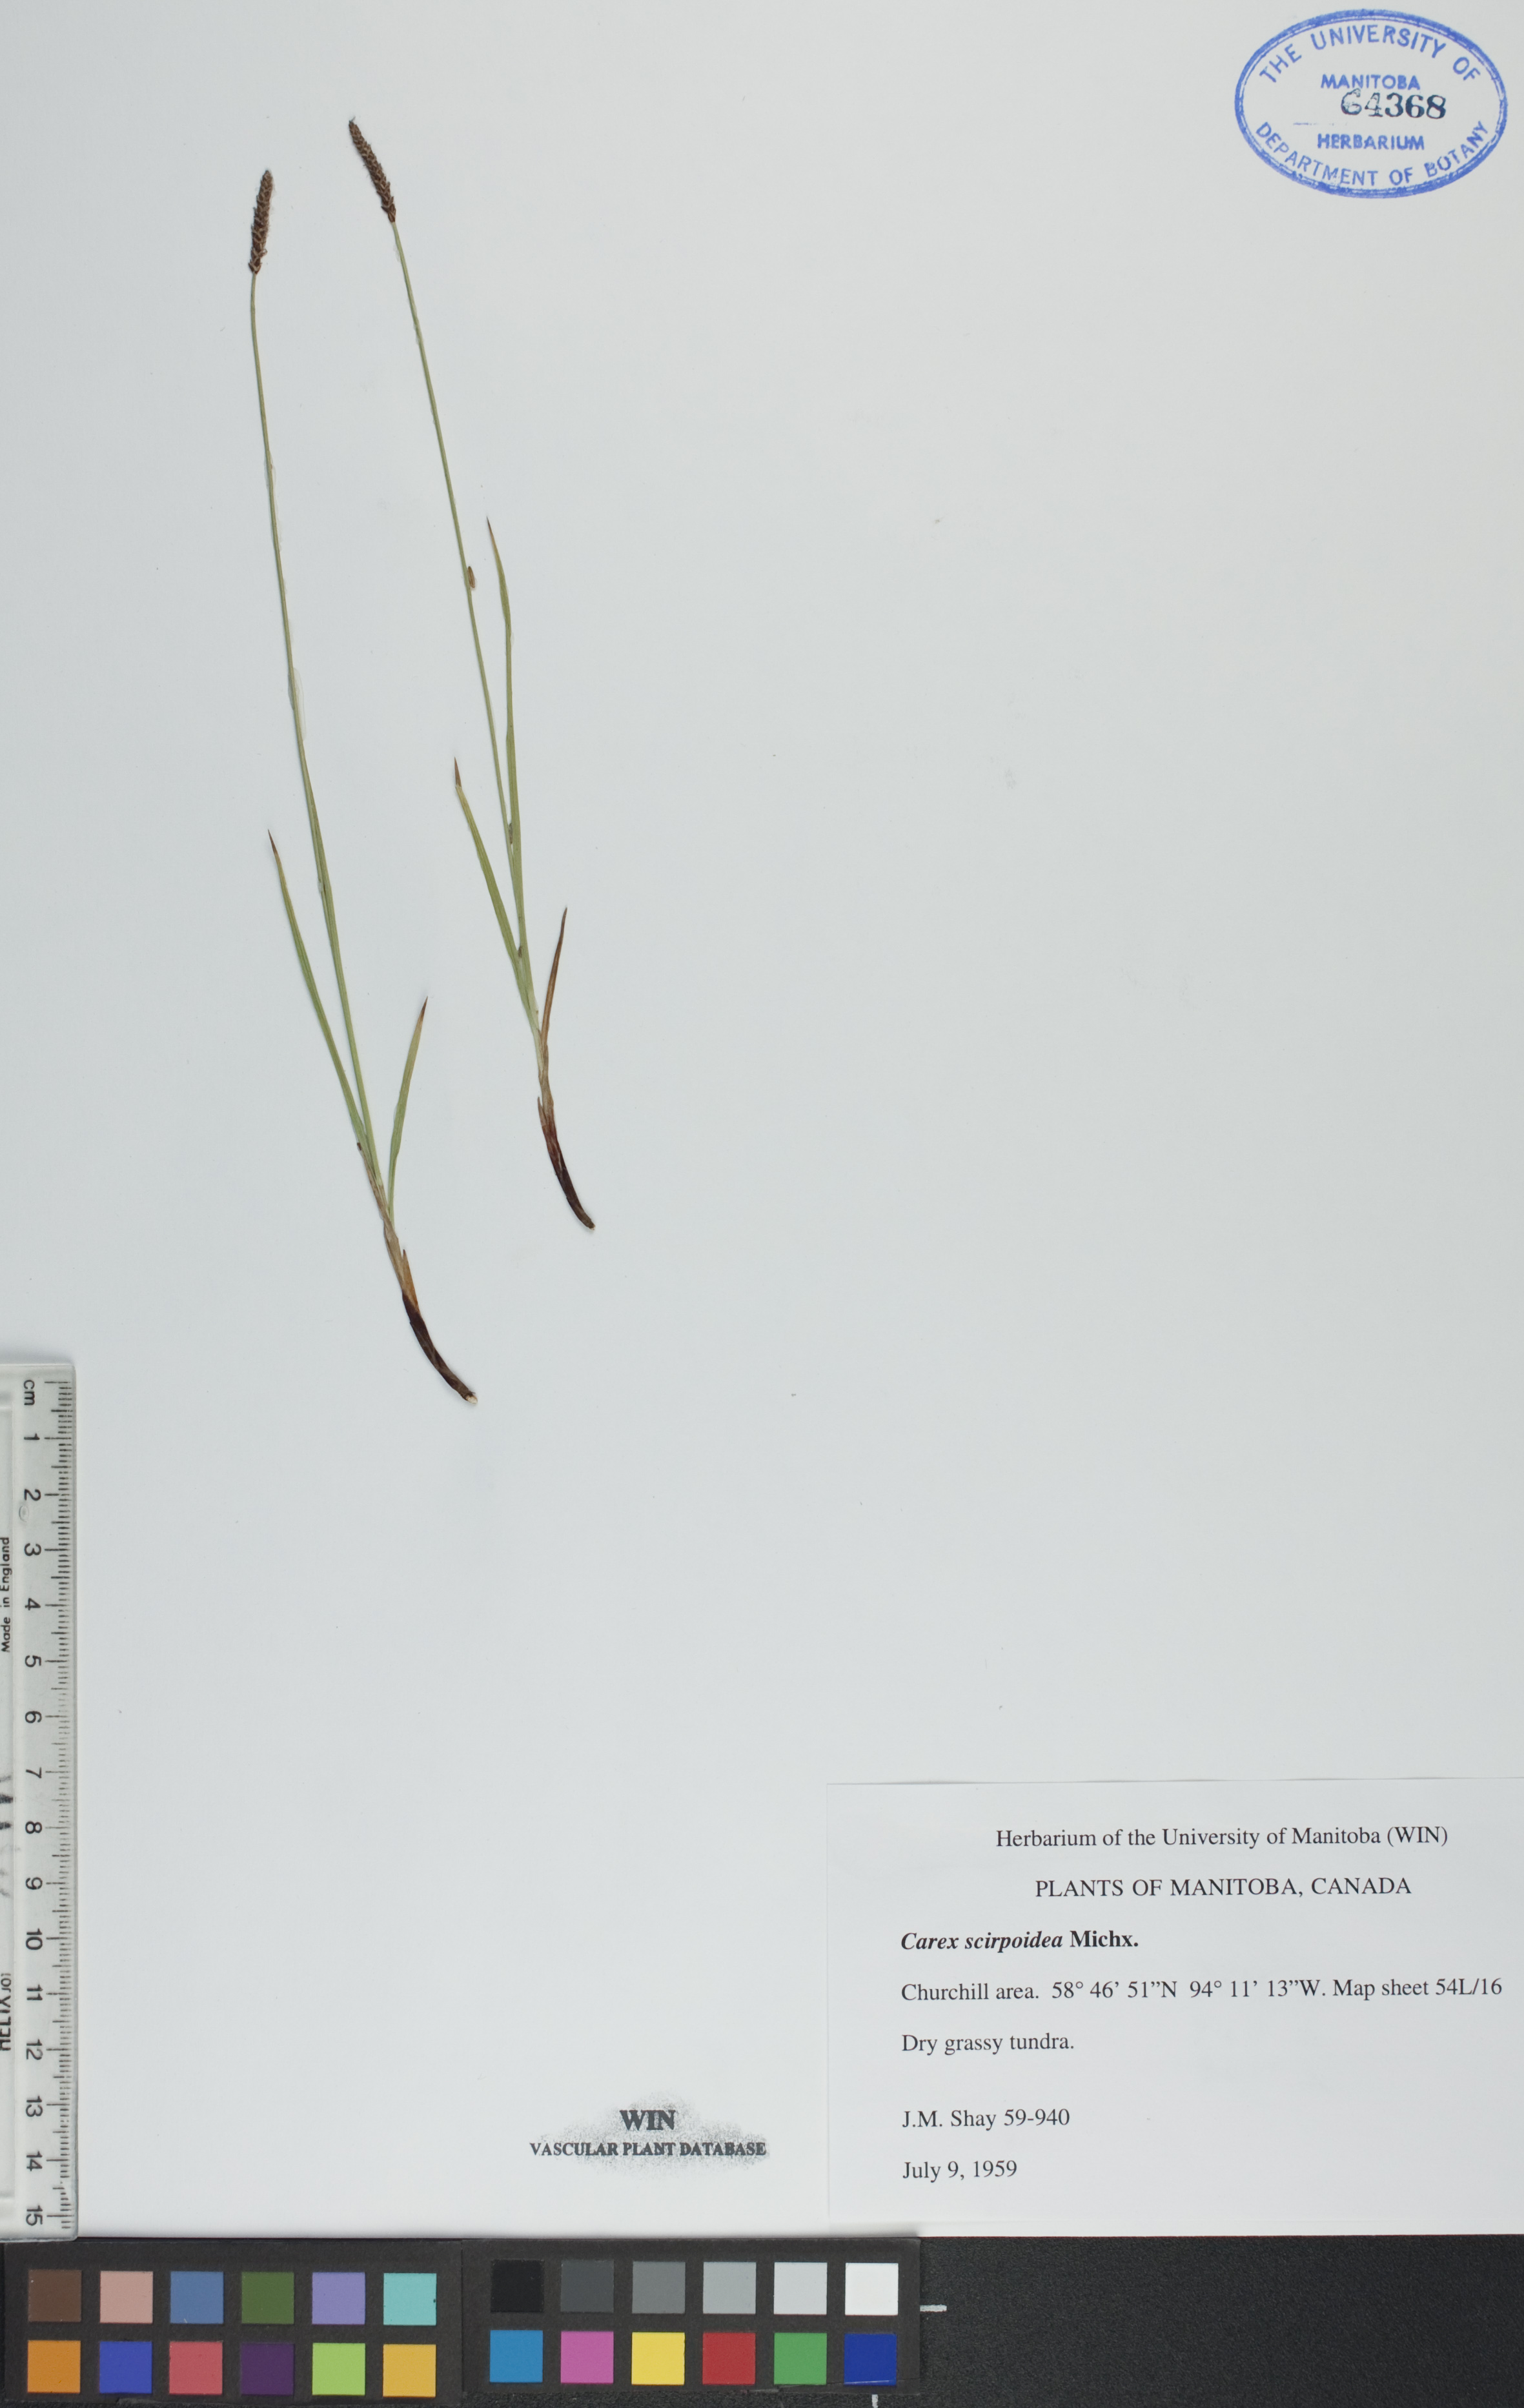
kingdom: Plantae
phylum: Tracheophyta
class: Liliopsida
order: Poales
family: Cyperaceae
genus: Carex
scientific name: Carex scirpoidea
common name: Canada single-spike sedge
